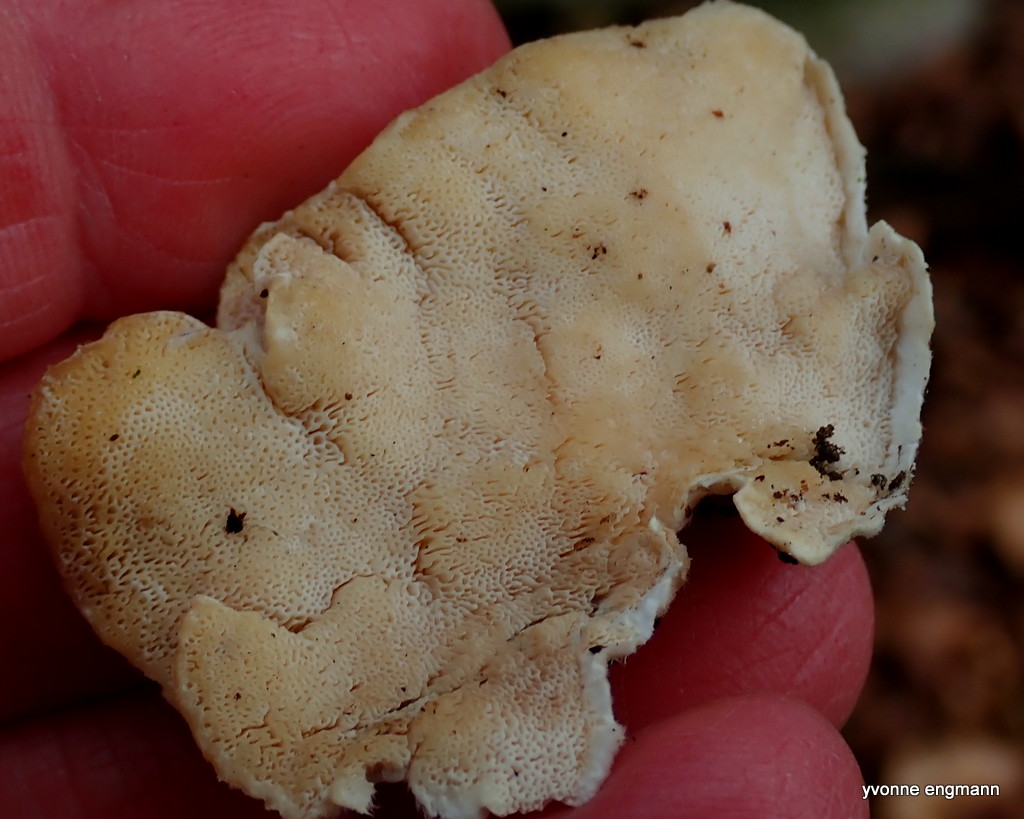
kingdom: Fungi
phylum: Basidiomycota
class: Agaricomycetes
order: Polyporales
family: Polyporaceae
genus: Trametes
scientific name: Trametes versicolor
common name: broget læderporesvamp
